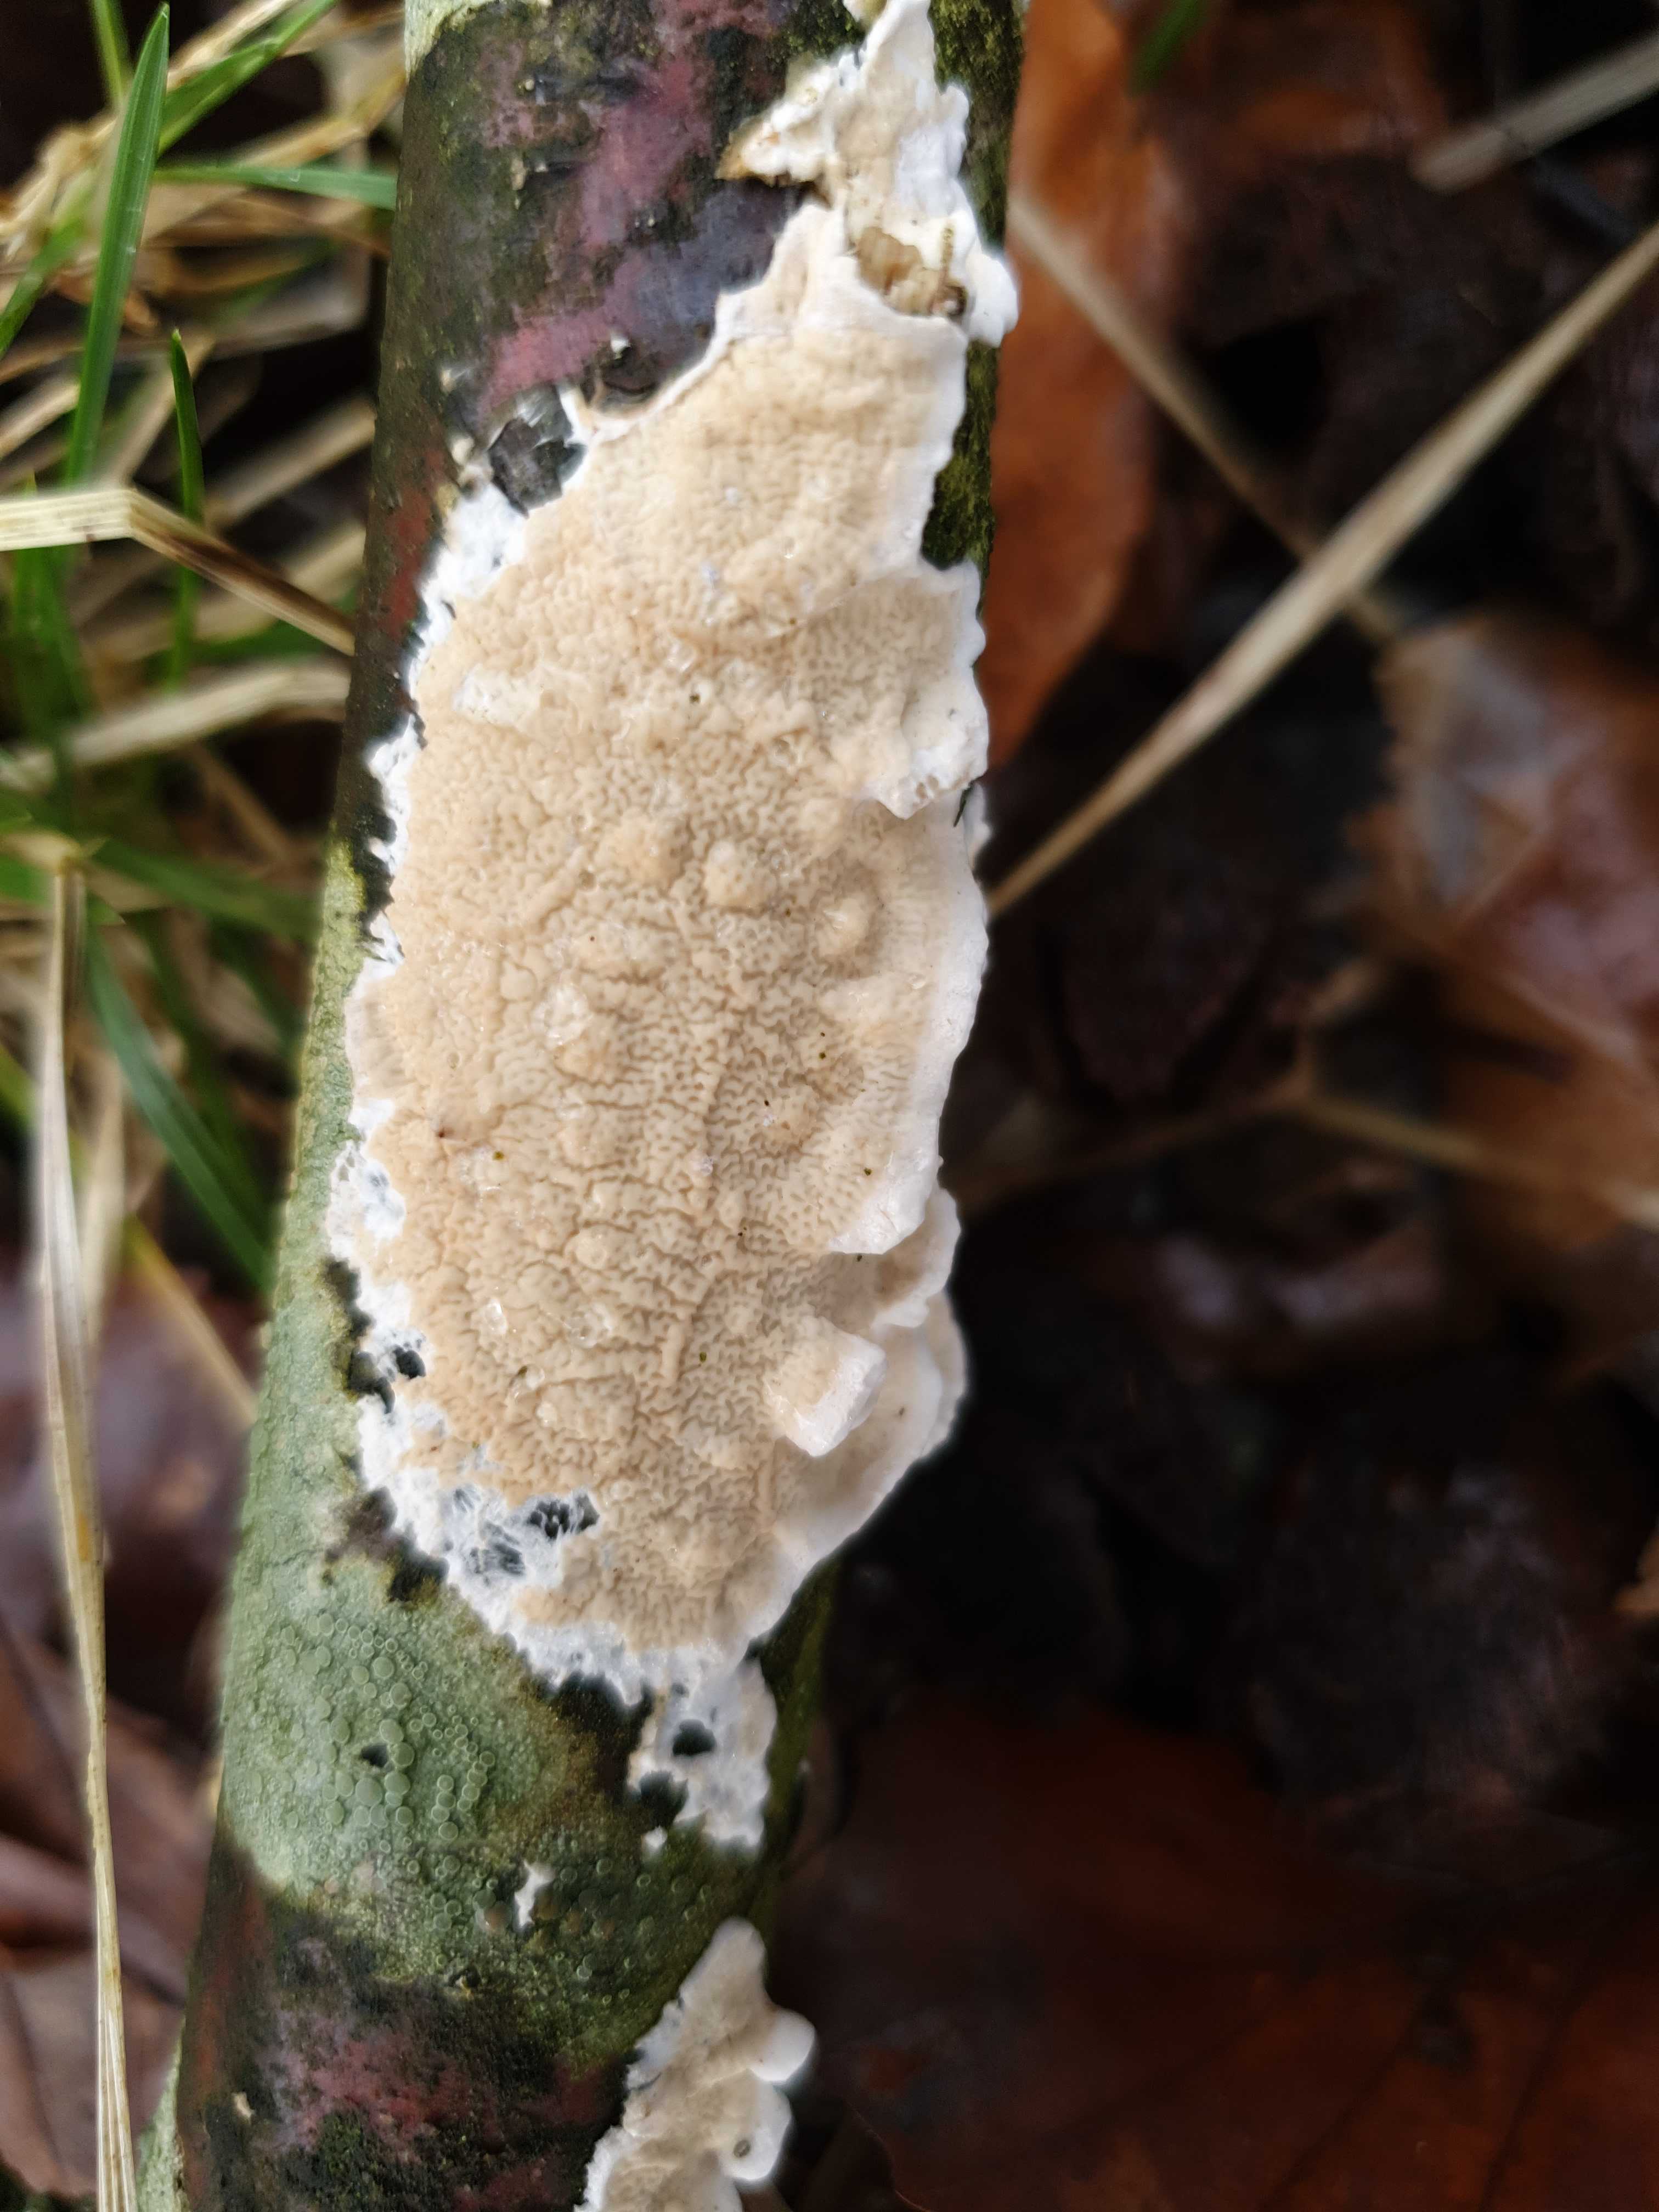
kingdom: Fungi
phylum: Basidiomycota
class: Agaricomycetes
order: Polyporales
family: Irpicaceae
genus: Byssomerulius
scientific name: Byssomerulius corium
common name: læder-åresvamp
